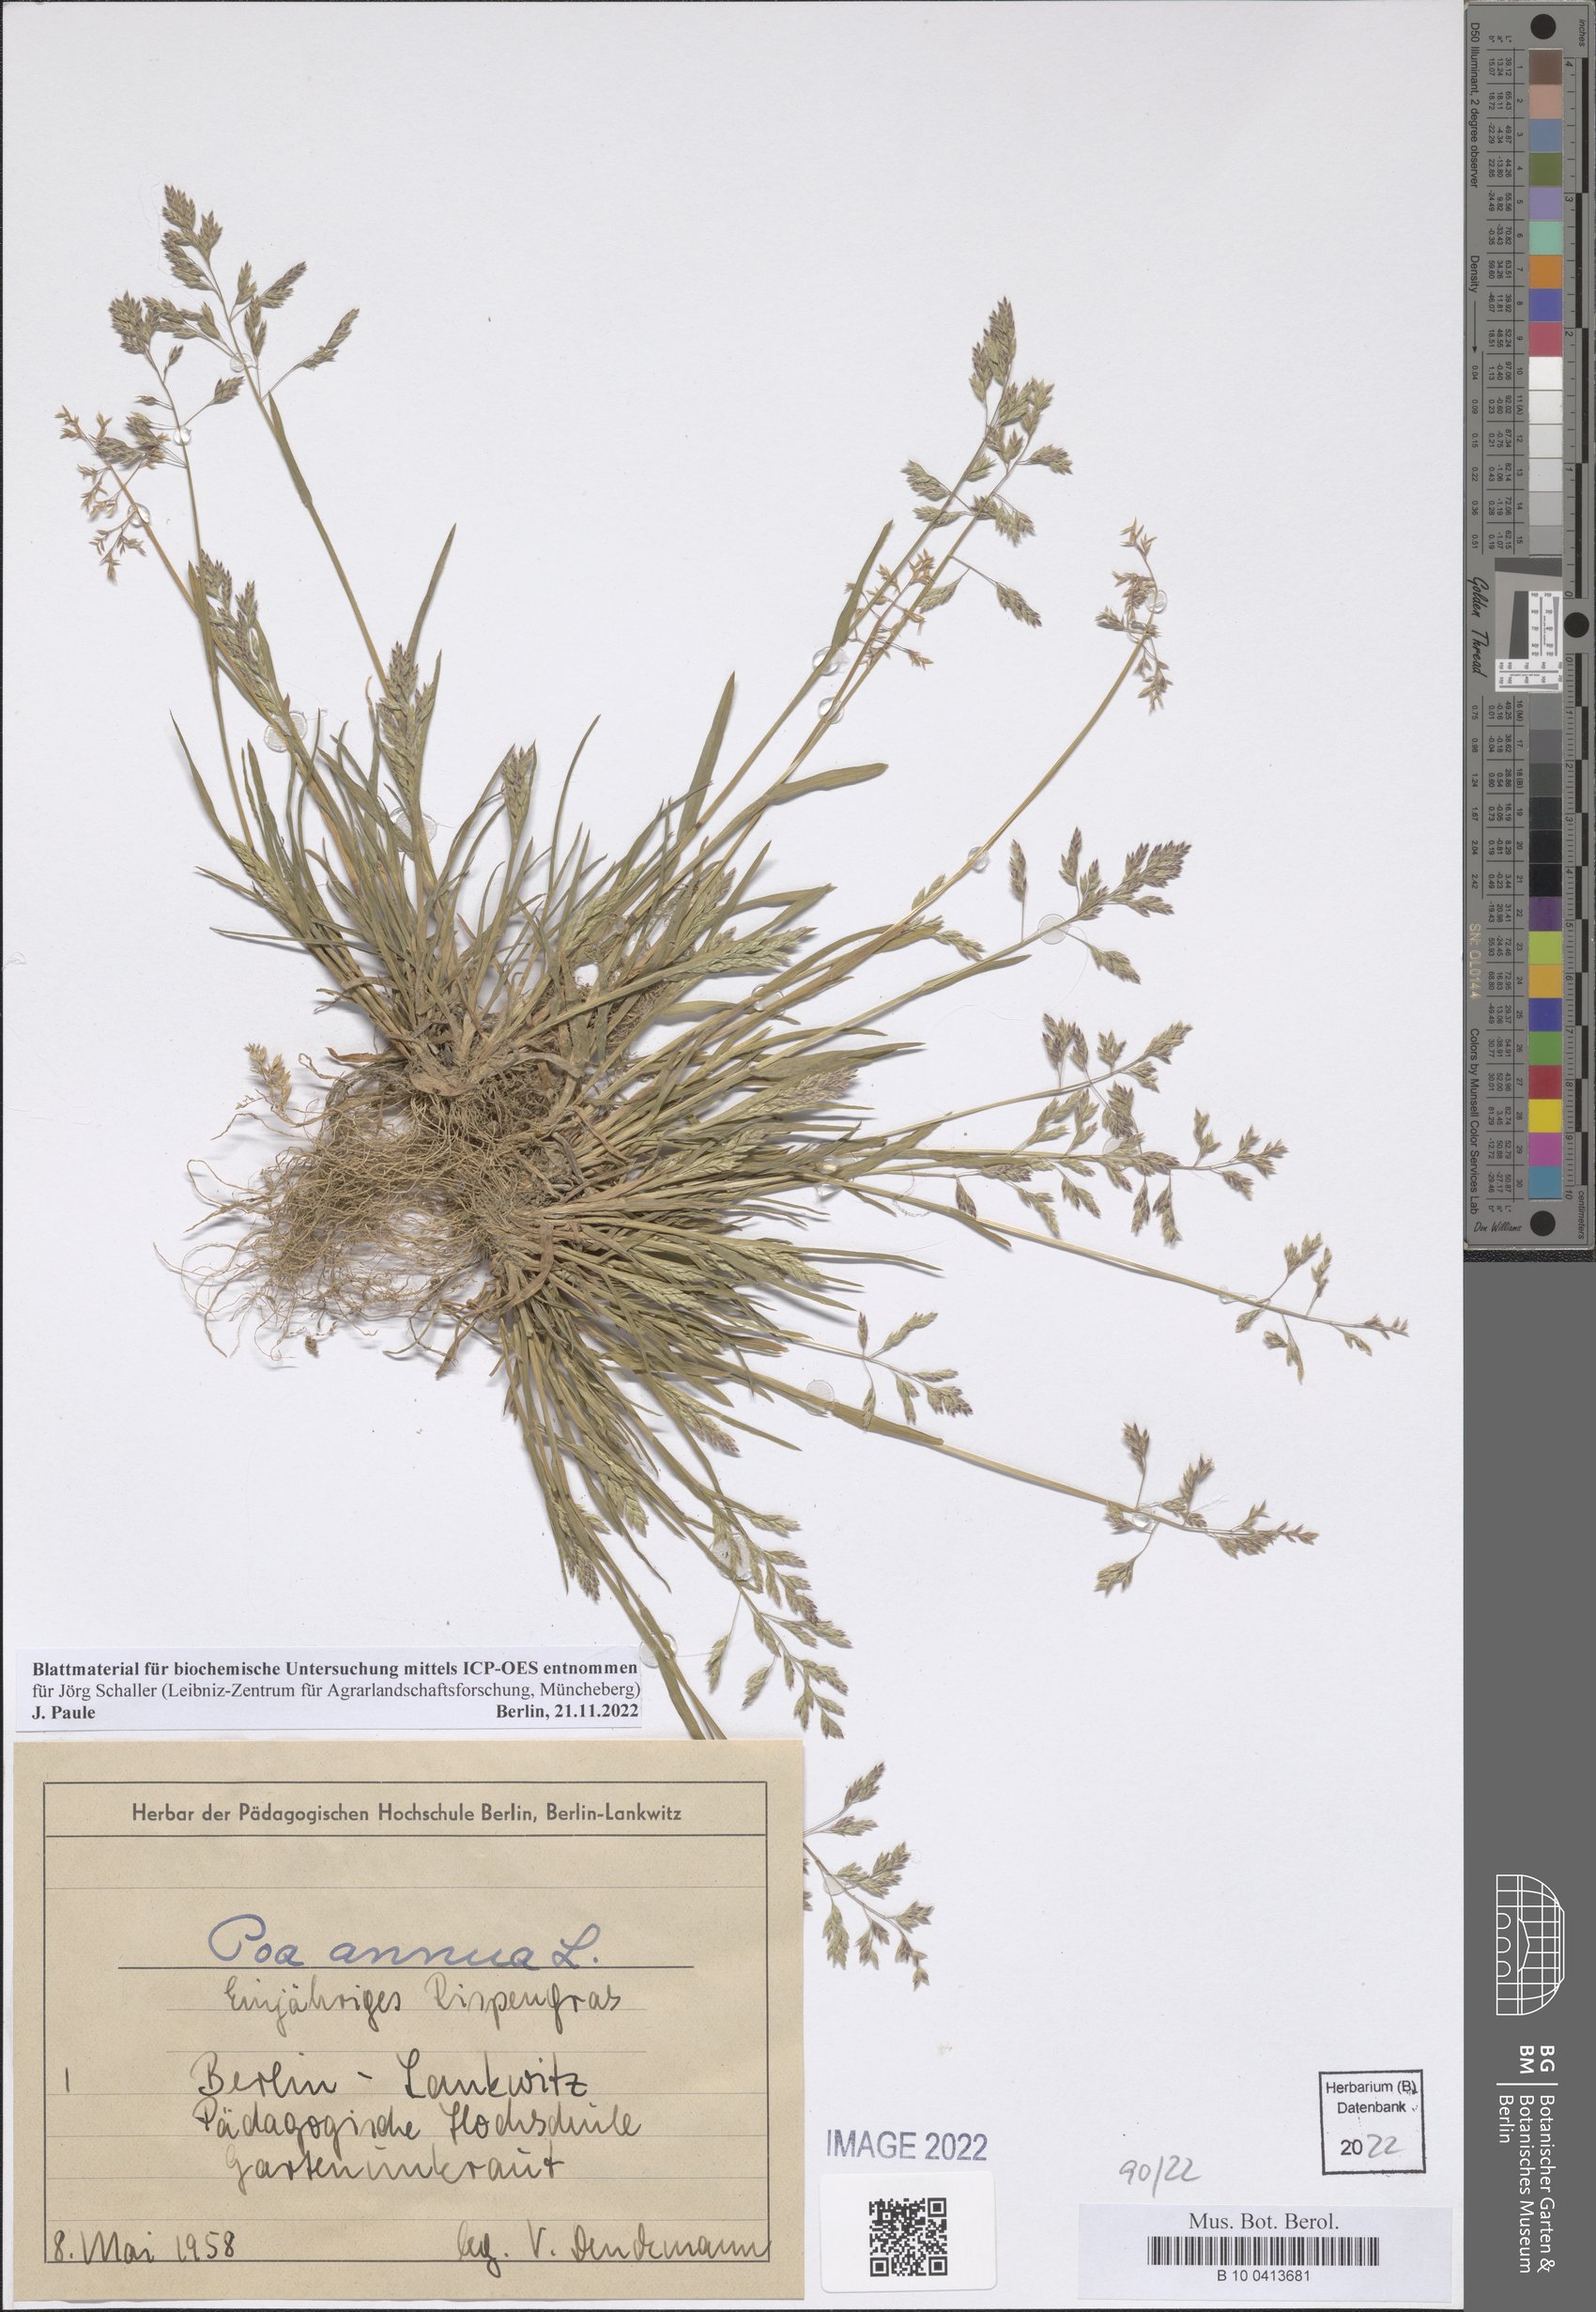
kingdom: Plantae
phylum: Tracheophyta
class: Liliopsida
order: Poales
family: Poaceae
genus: Poa
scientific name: Poa annua
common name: Annual bluegrass
